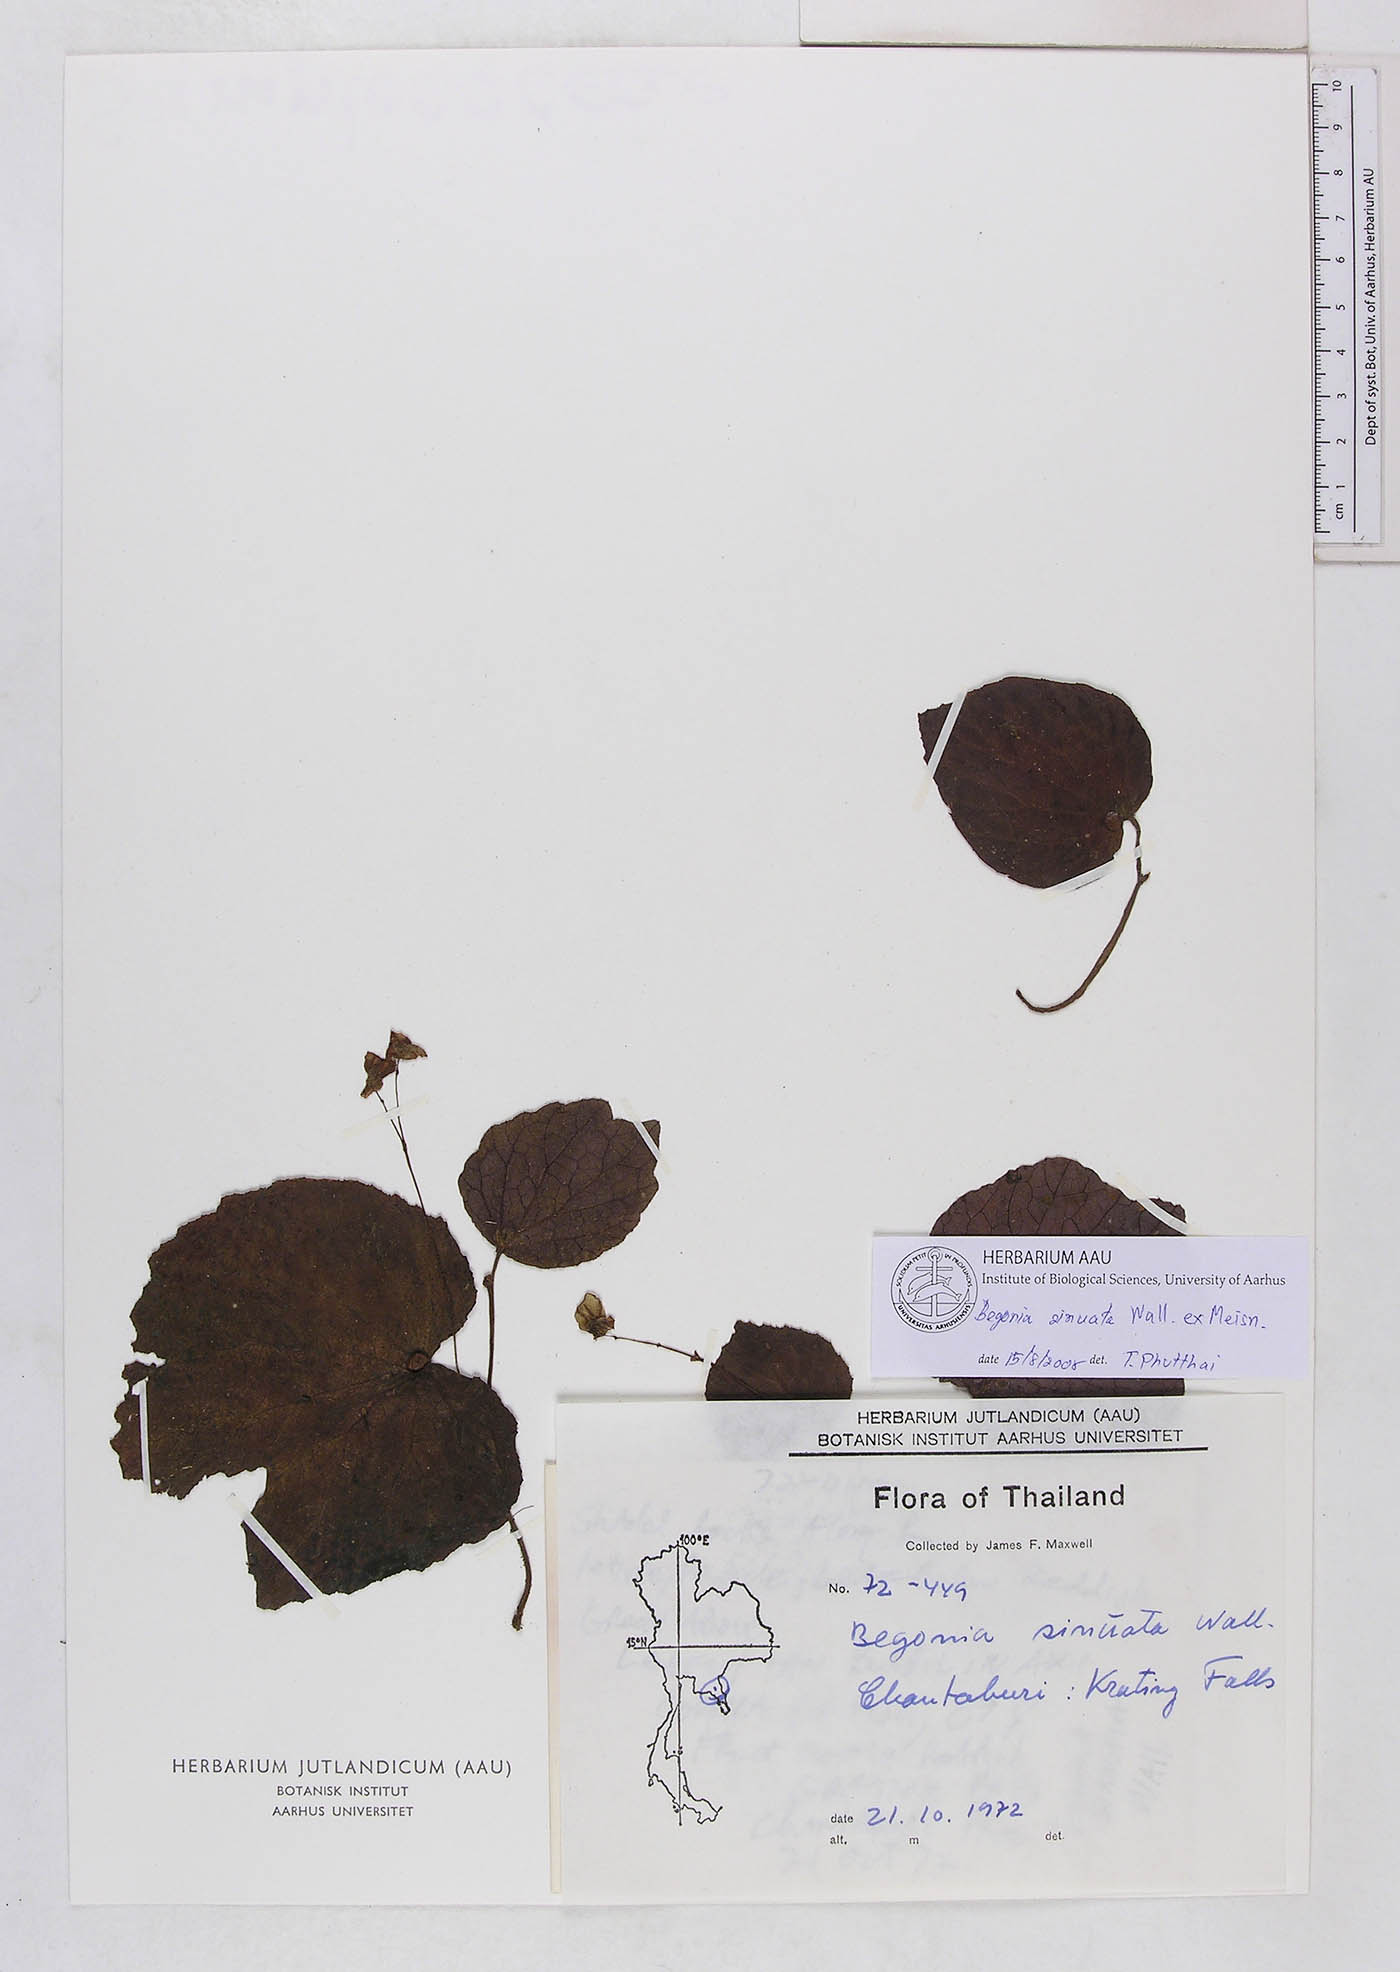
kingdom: Plantae
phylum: Tracheophyta
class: Magnoliopsida
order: Cucurbitales
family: Begoniaceae
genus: Begonia
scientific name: Begonia sinuata
